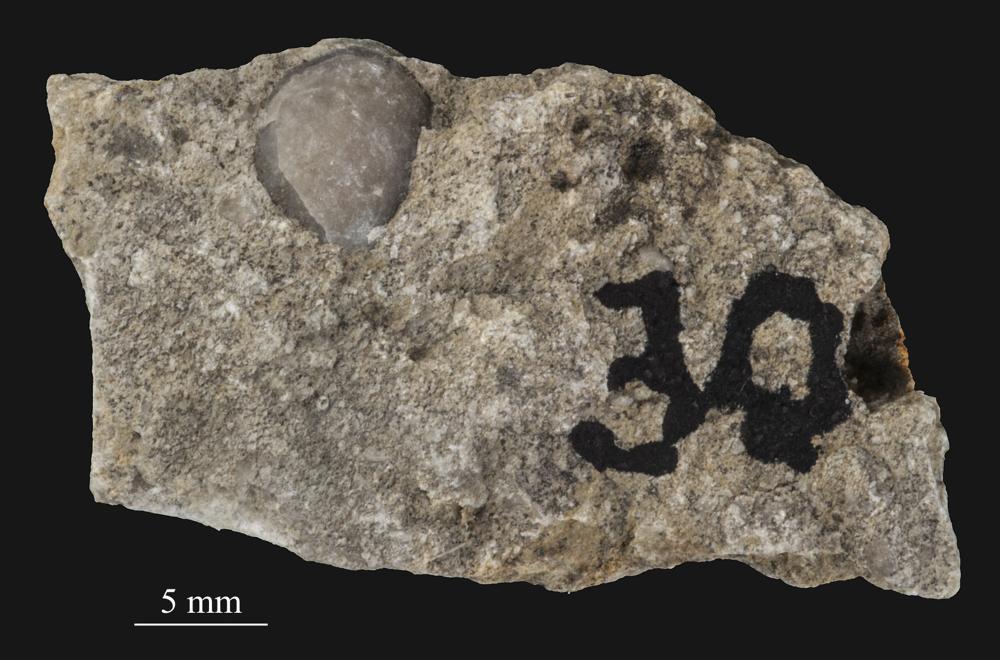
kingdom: Animalia
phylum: Bryozoa
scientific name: Bryozoa
